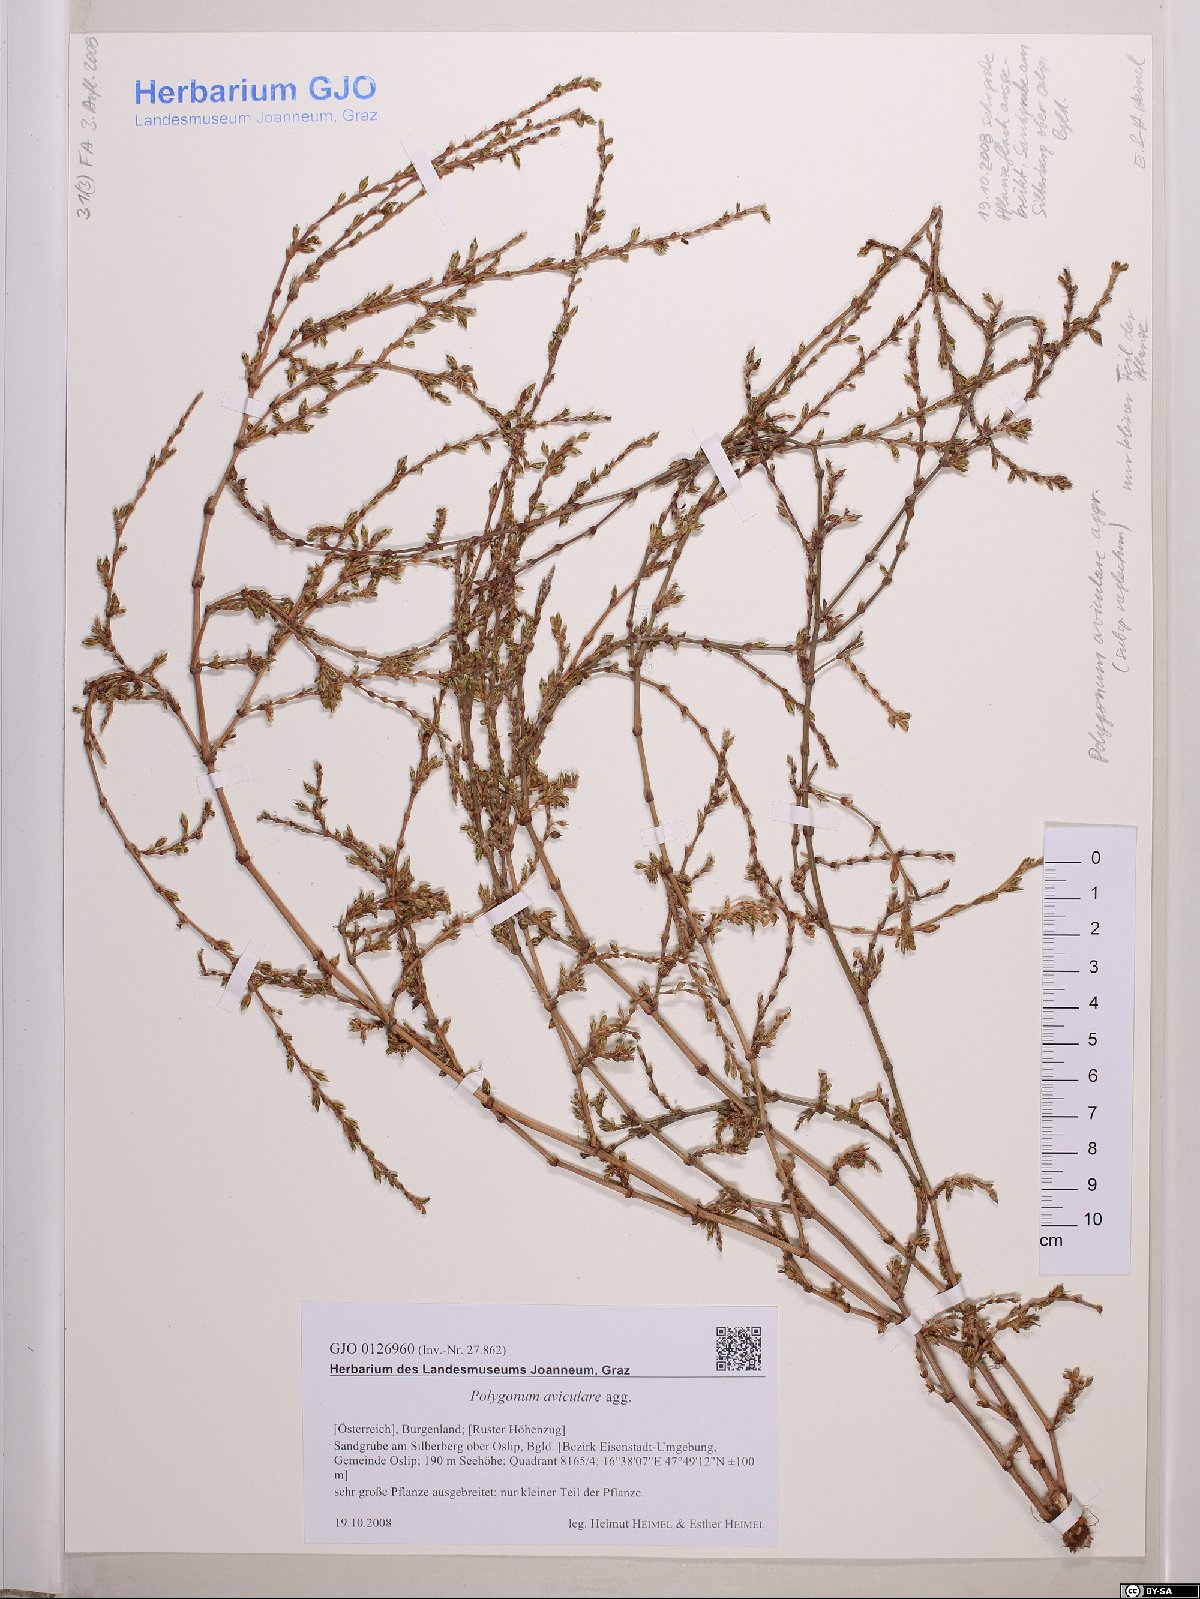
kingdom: Plantae
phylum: Tracheophyta
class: Magnoliopsida
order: Caryophyllales
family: Polygonaceae
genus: Polygonum
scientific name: Polygonum aviculare
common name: Prostrate knotweed
